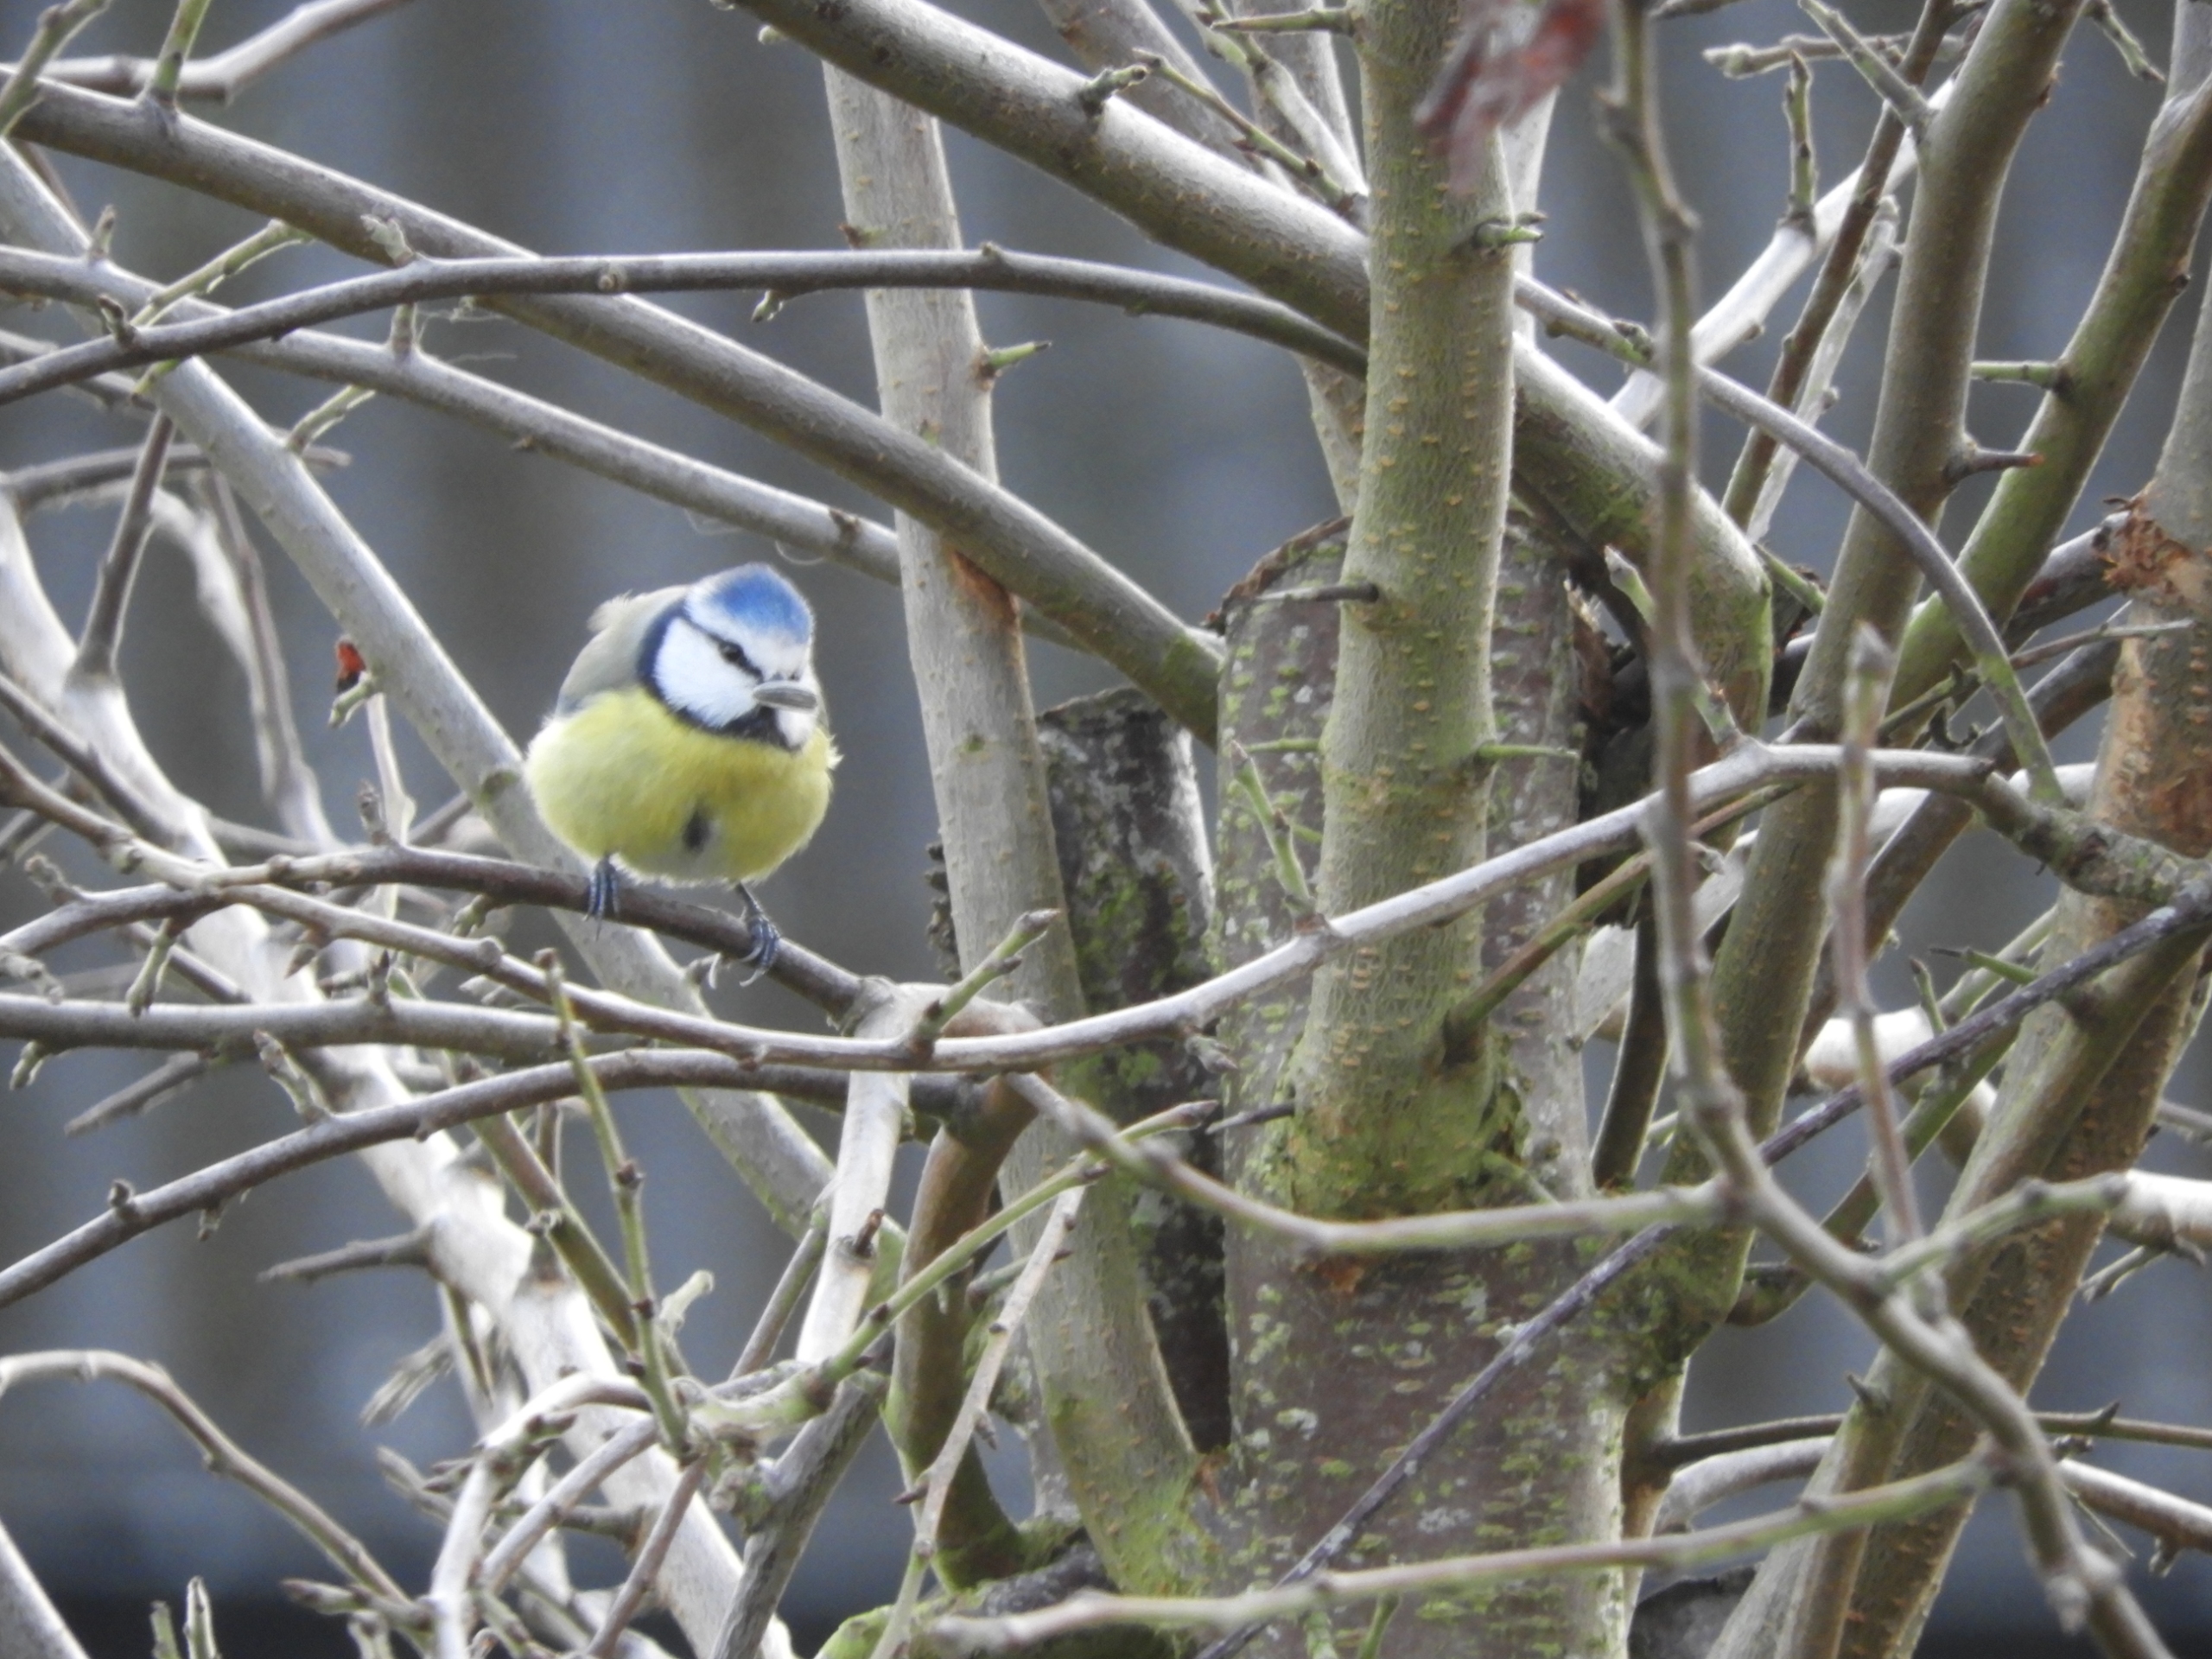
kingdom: Animalia
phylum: Chordata
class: Aves
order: Passeriformes
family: Paridae
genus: Cyanistes
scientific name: Cyanistes caeruleus
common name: Blåmejse
